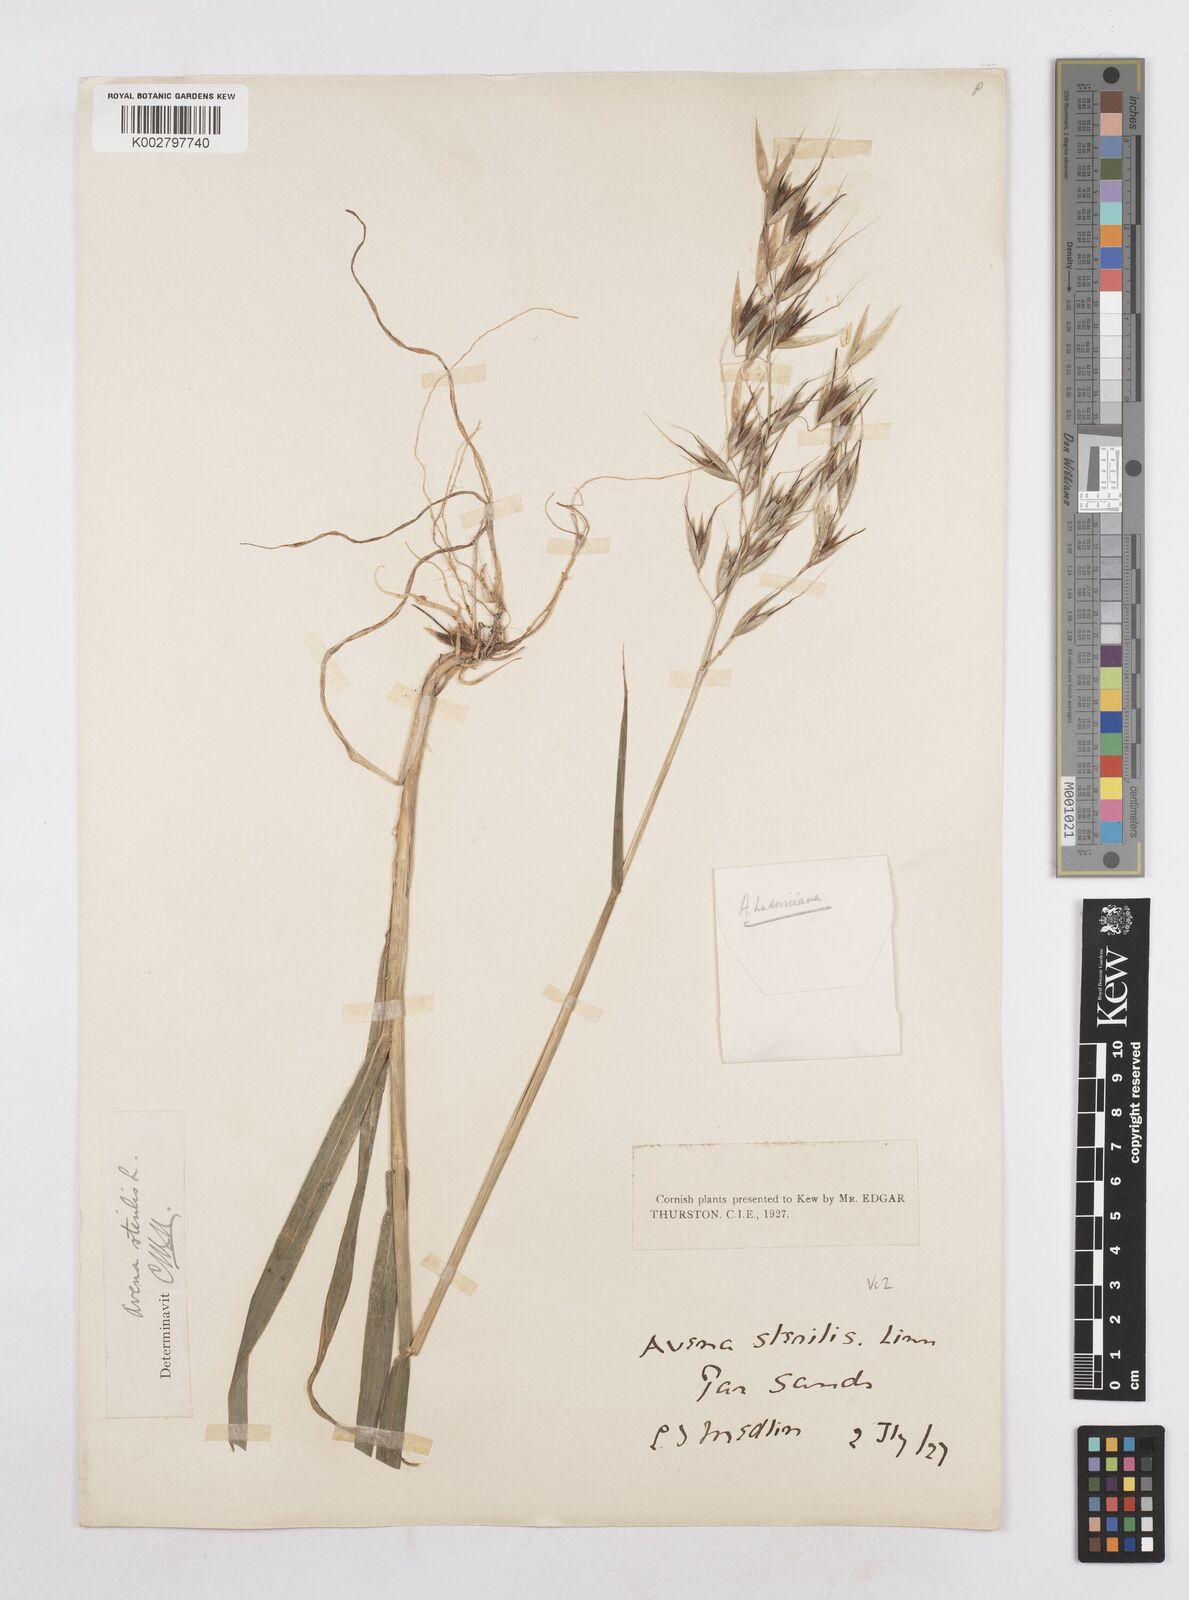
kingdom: Plantae
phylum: Tracheophyta
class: Liliopsida
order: Poales
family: Poaceae
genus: Avena
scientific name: Avena sterilis
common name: Animated oat
